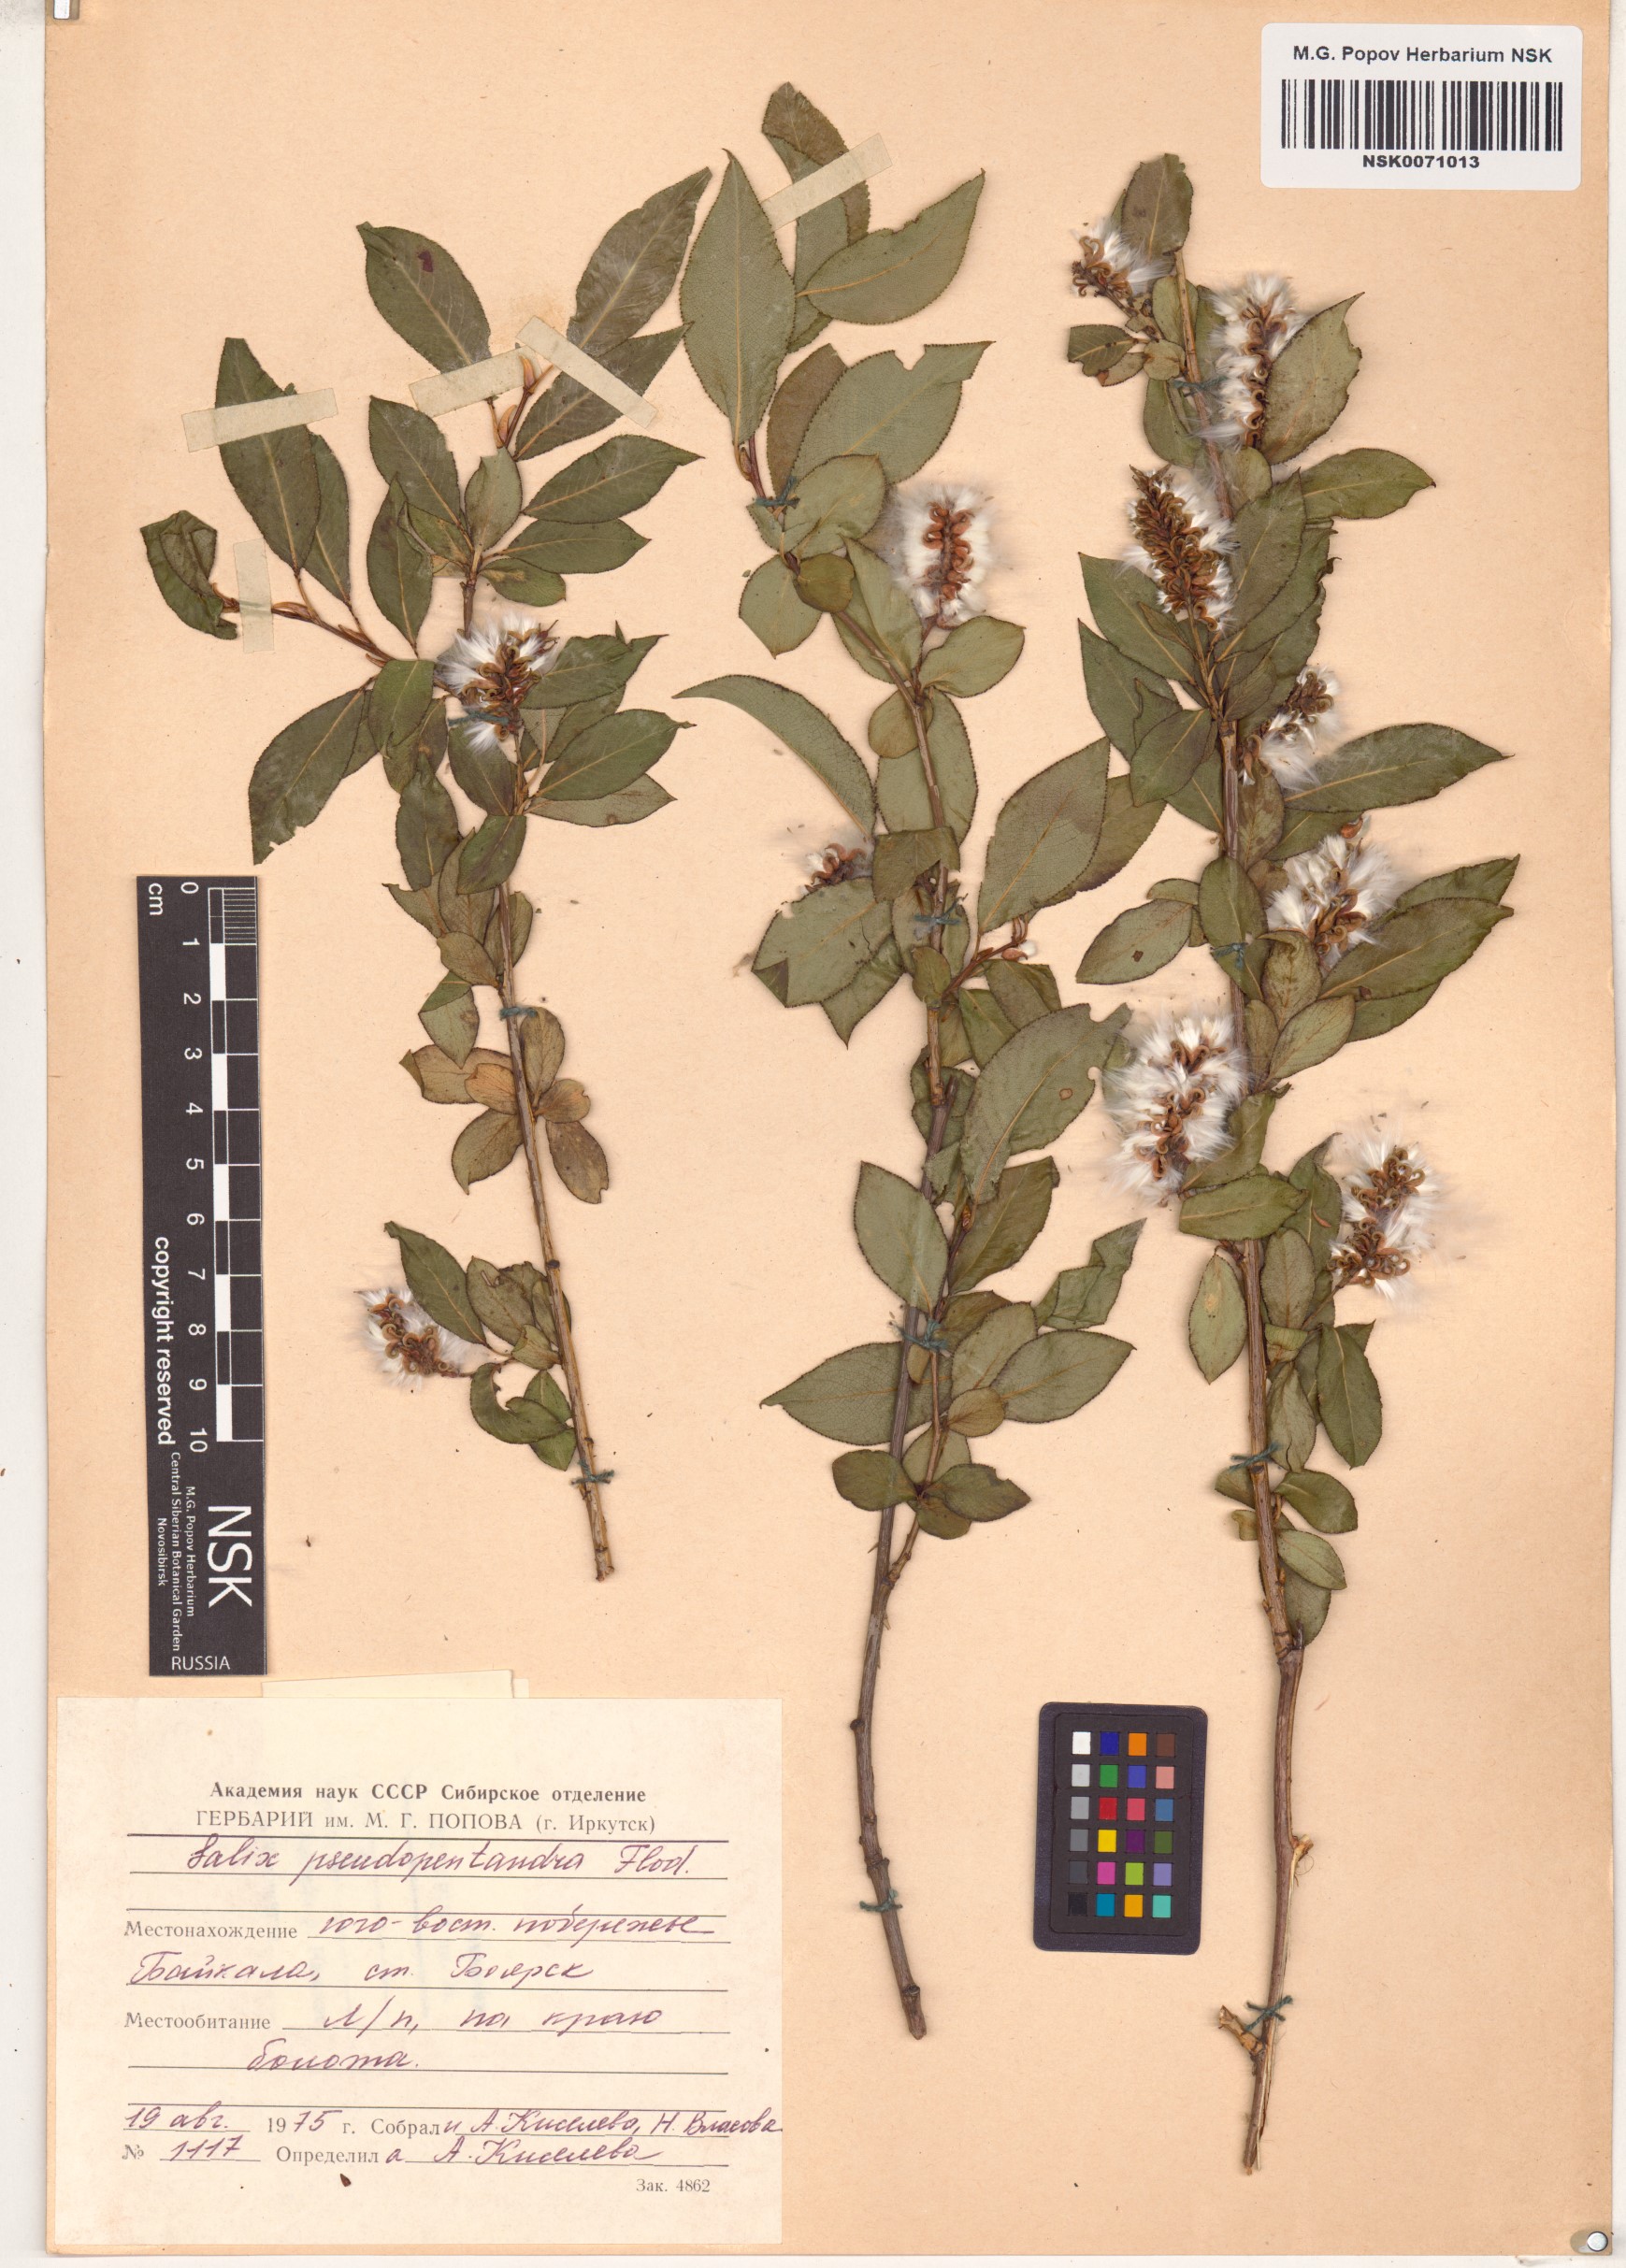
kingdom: Plantae
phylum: Tracheophyta
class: Magnoliopsida
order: Malpighiales
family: Salicaceae
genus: Salix
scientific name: Salix pseudopentandra
